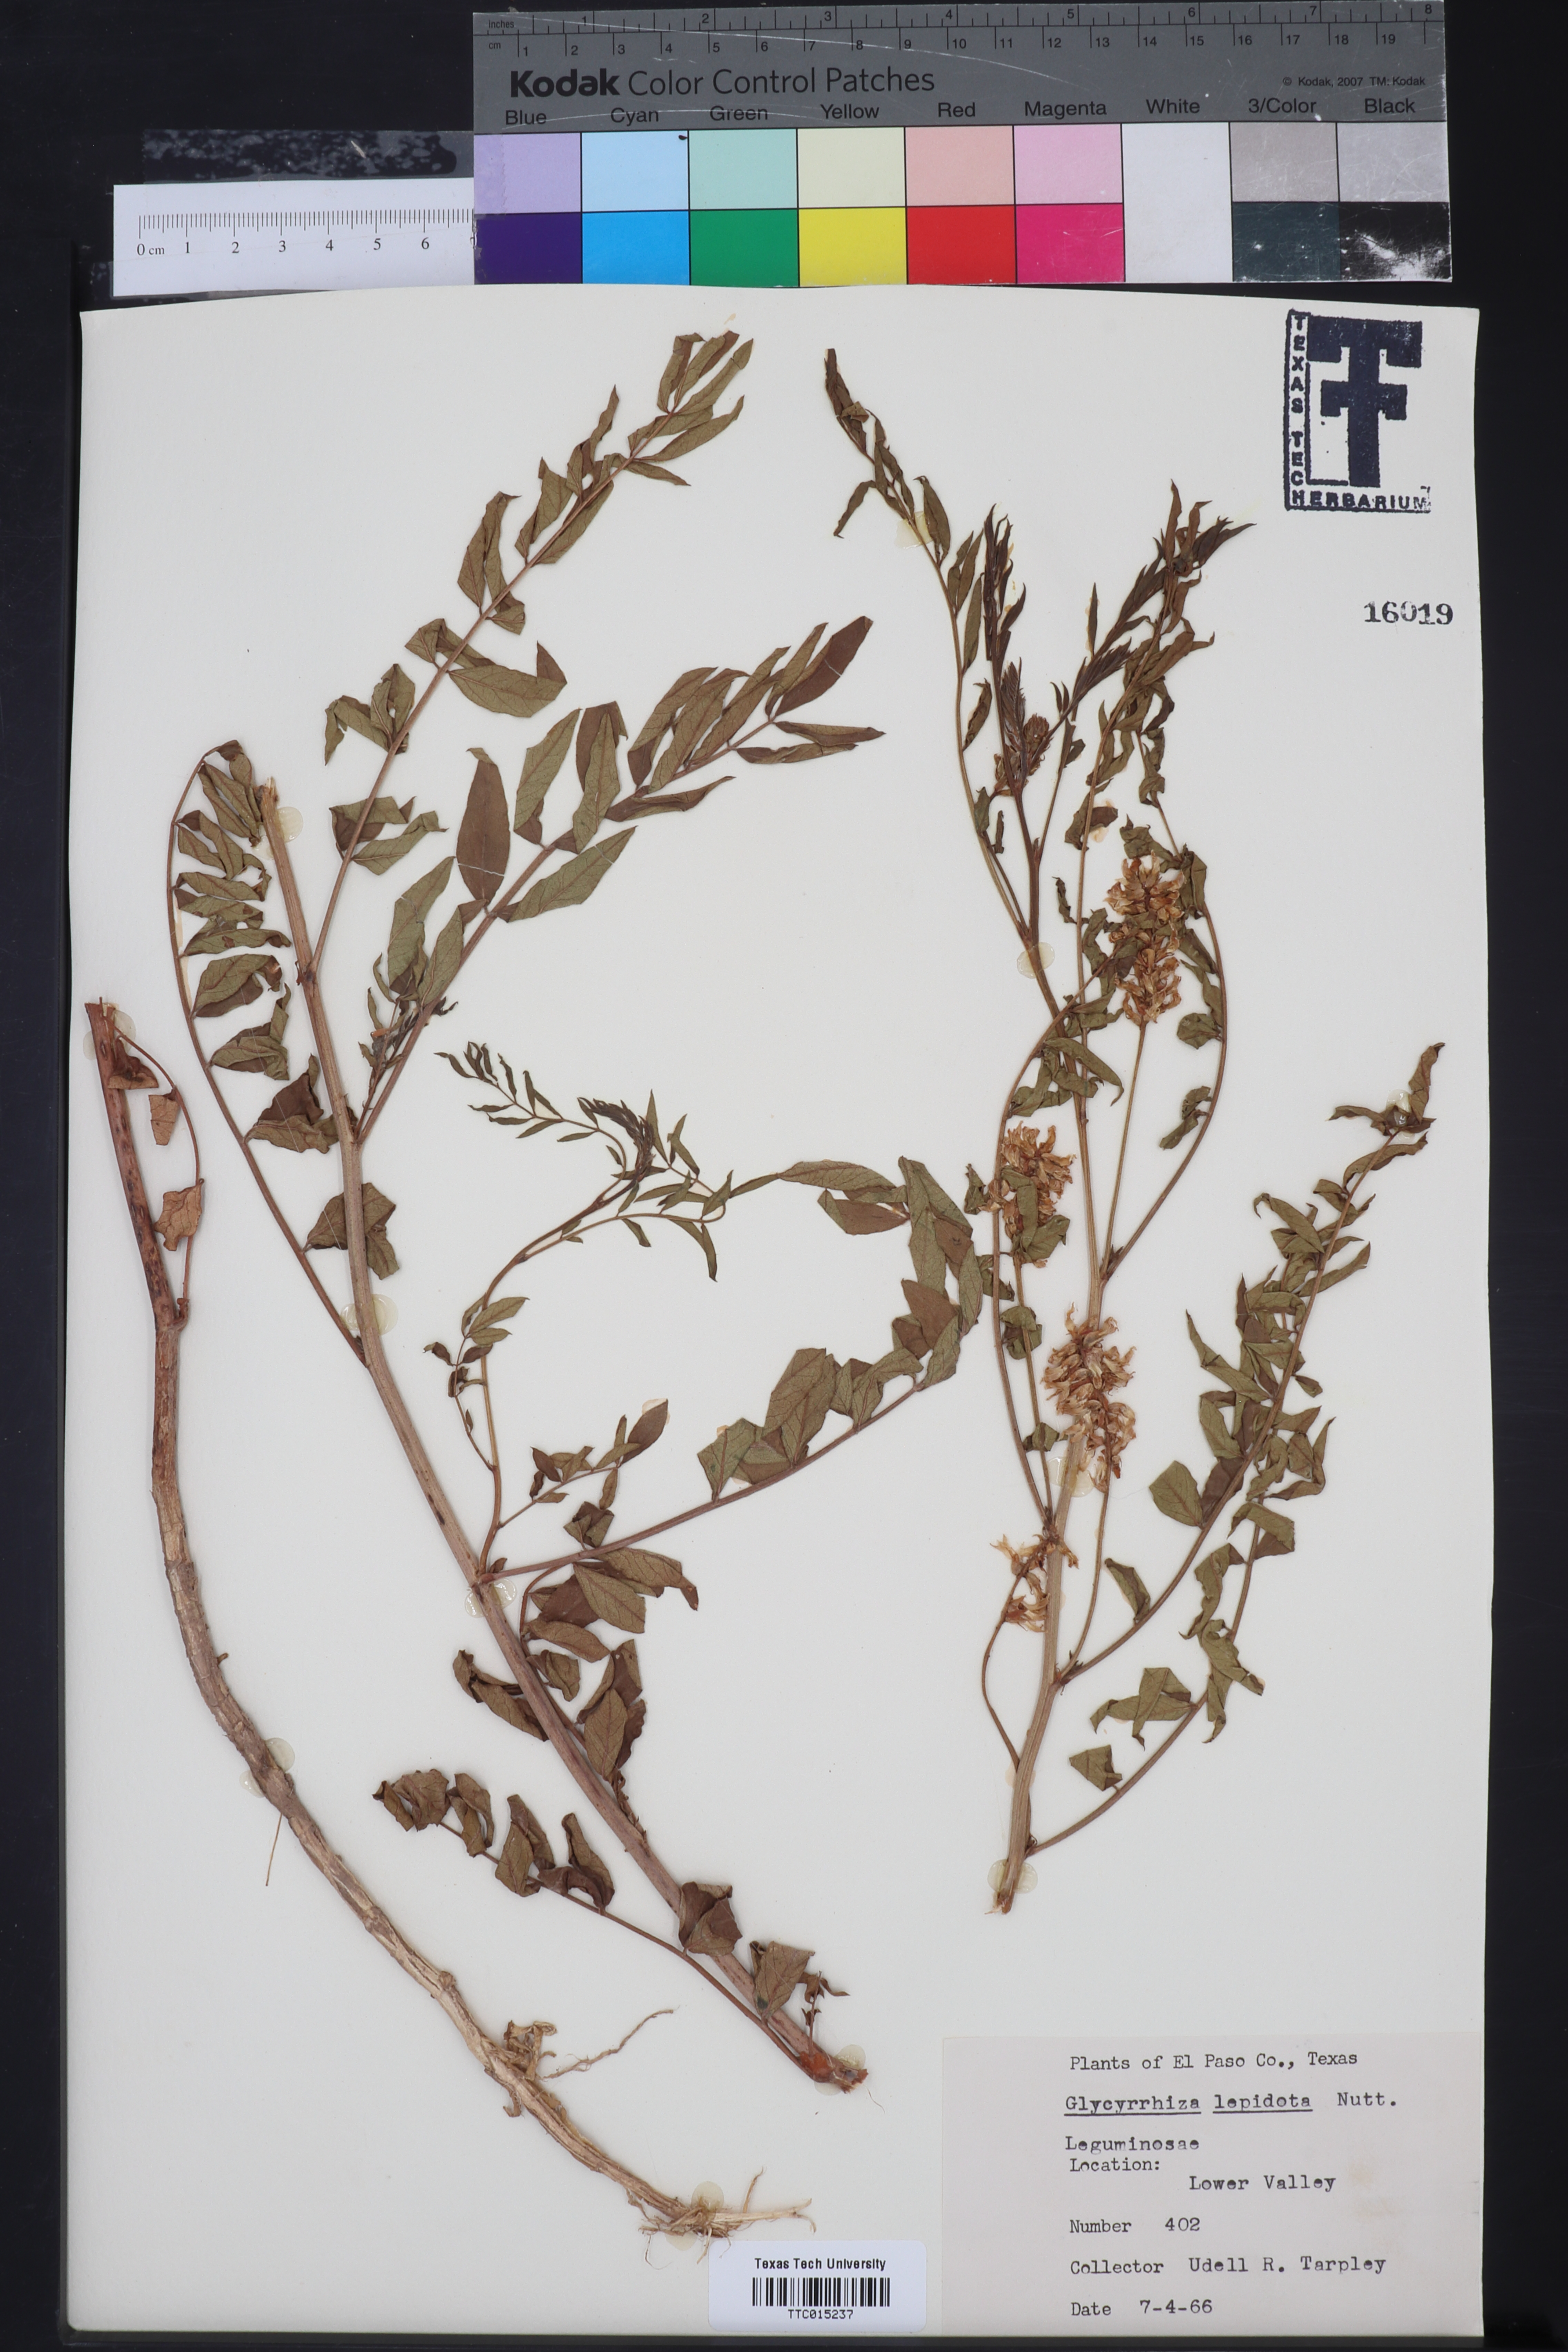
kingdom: Plantae
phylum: Tracheophyta
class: Magnoliopsida
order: Fabales
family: Fabaceae
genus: Glycyrrhiza
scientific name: Glycyrrhiza lepidota
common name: American liquorice
